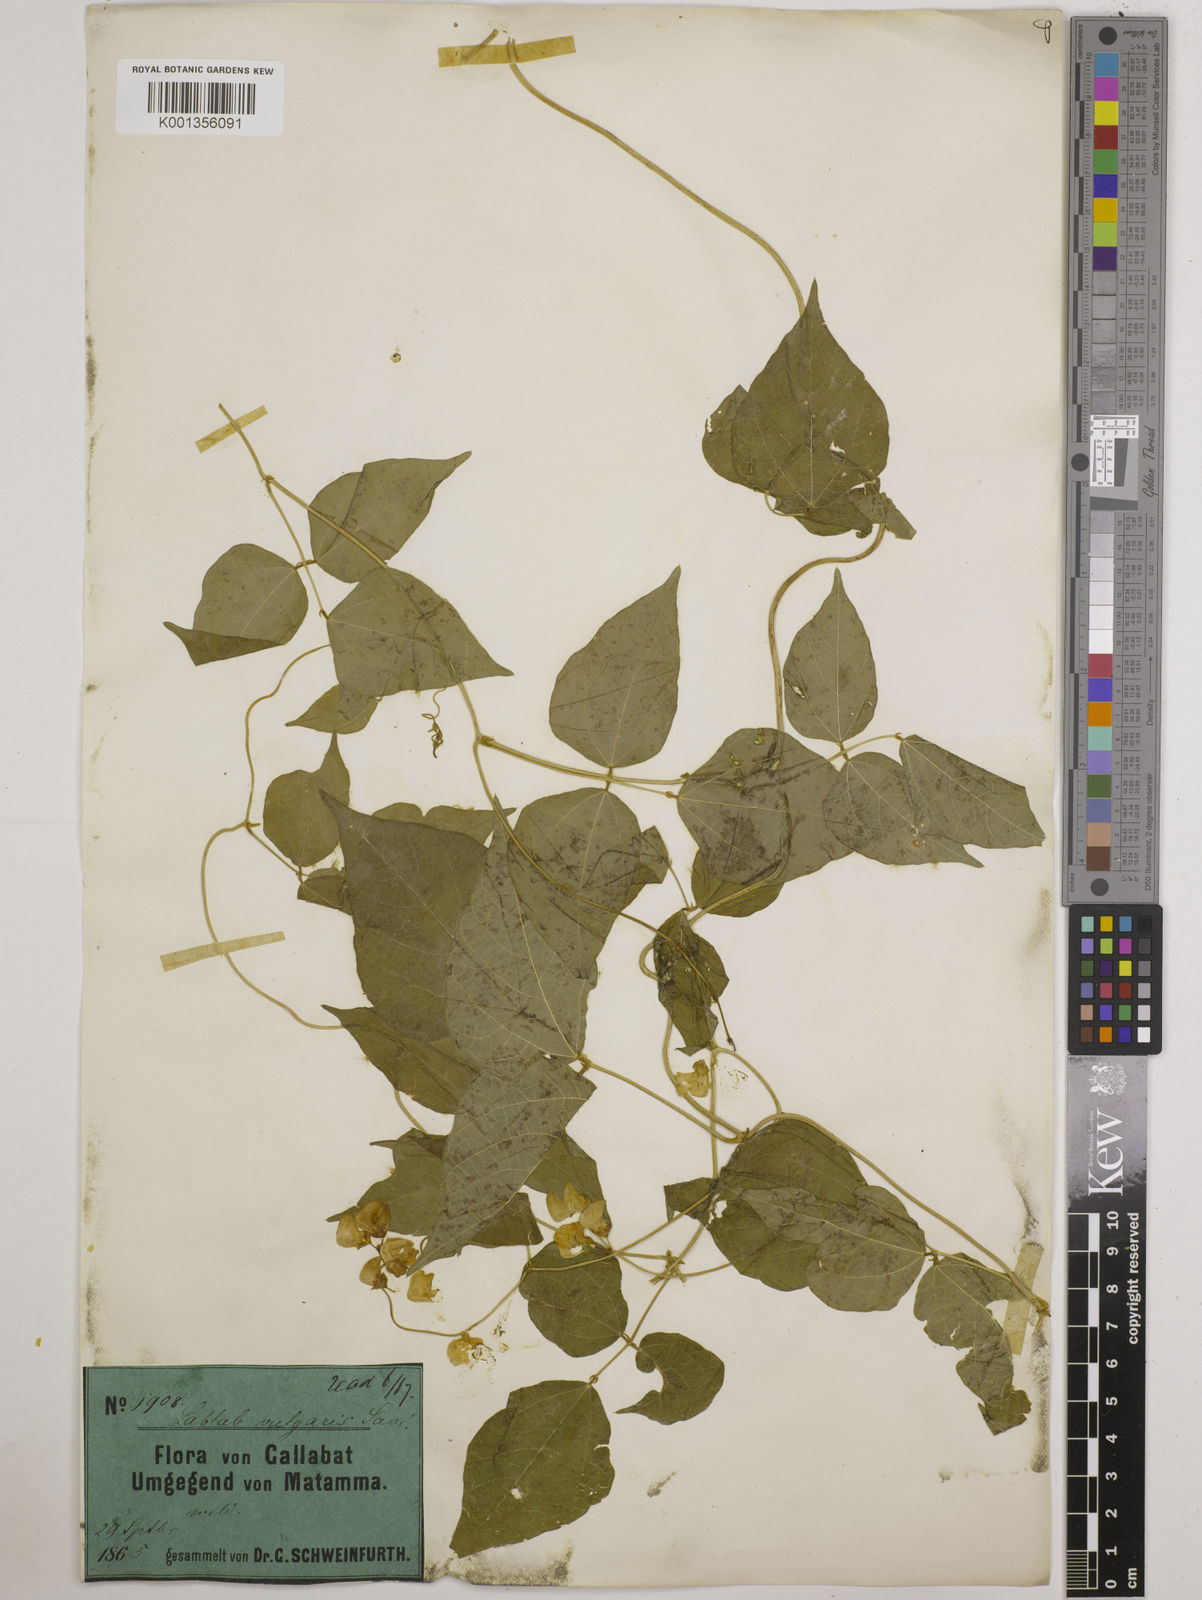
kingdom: Plantae
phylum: Tracheophyta
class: Magnoliopsida
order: Fabales
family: Fabaceae
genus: Lablab
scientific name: Lablab purpureus
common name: Lablab-bean
